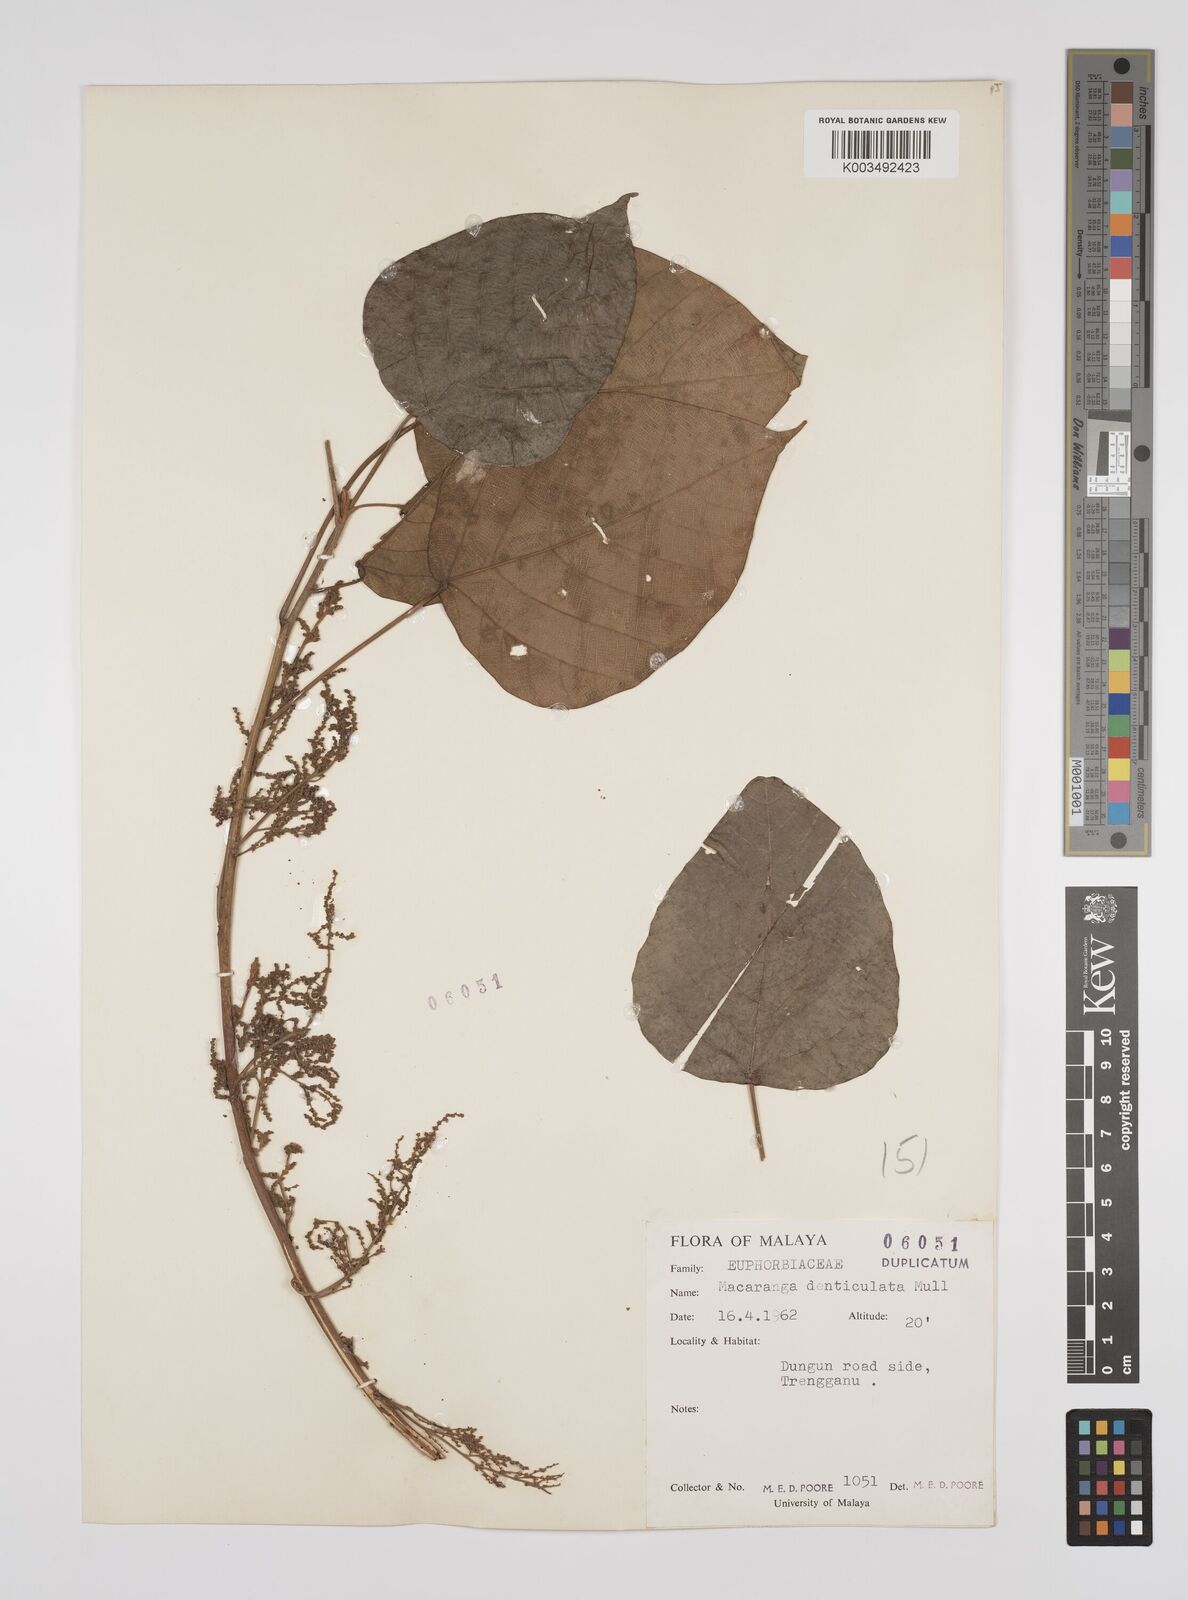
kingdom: Plantae
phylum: Tracheophyta
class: Magnoliopsida
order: Malpighiales
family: Euphorbiaceae
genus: Macaranga
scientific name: Macaranga denticulata
